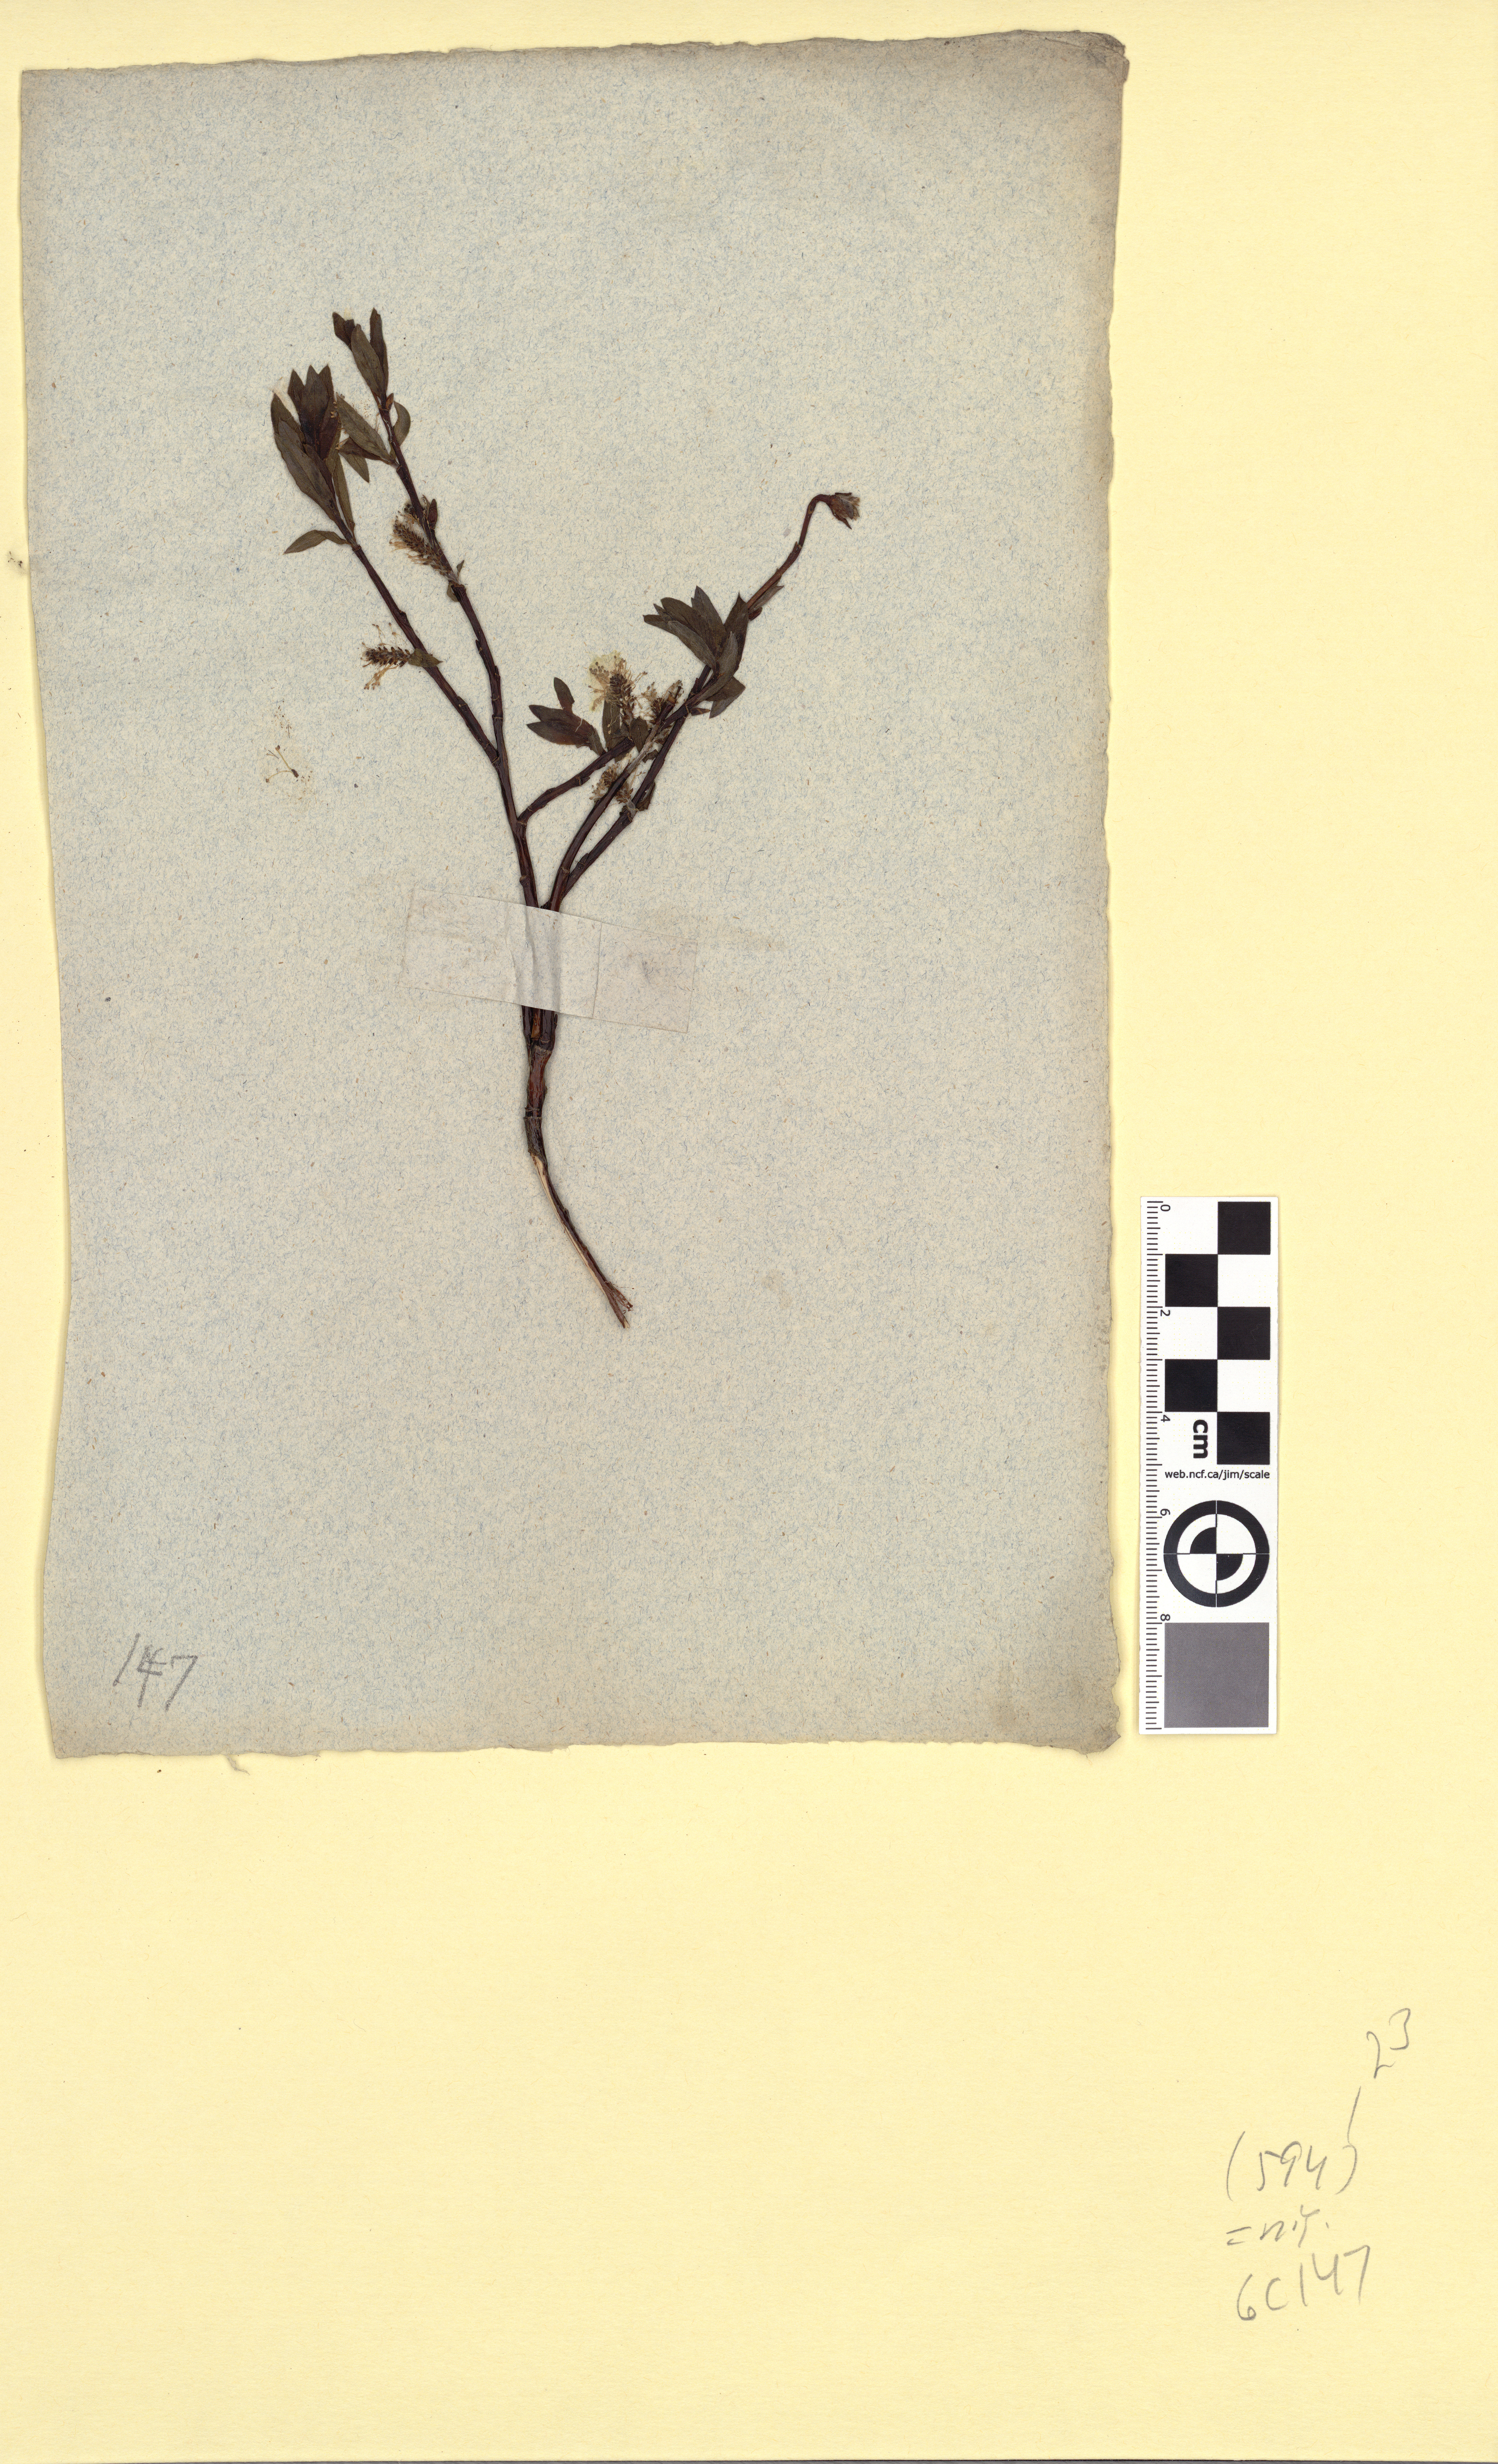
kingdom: Plantae
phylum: Tracheophyta
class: Magnoliopsida
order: Malpighiales
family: Salicaceae
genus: Salix
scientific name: Salix myrsinifolia
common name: Dark-leaved willow
